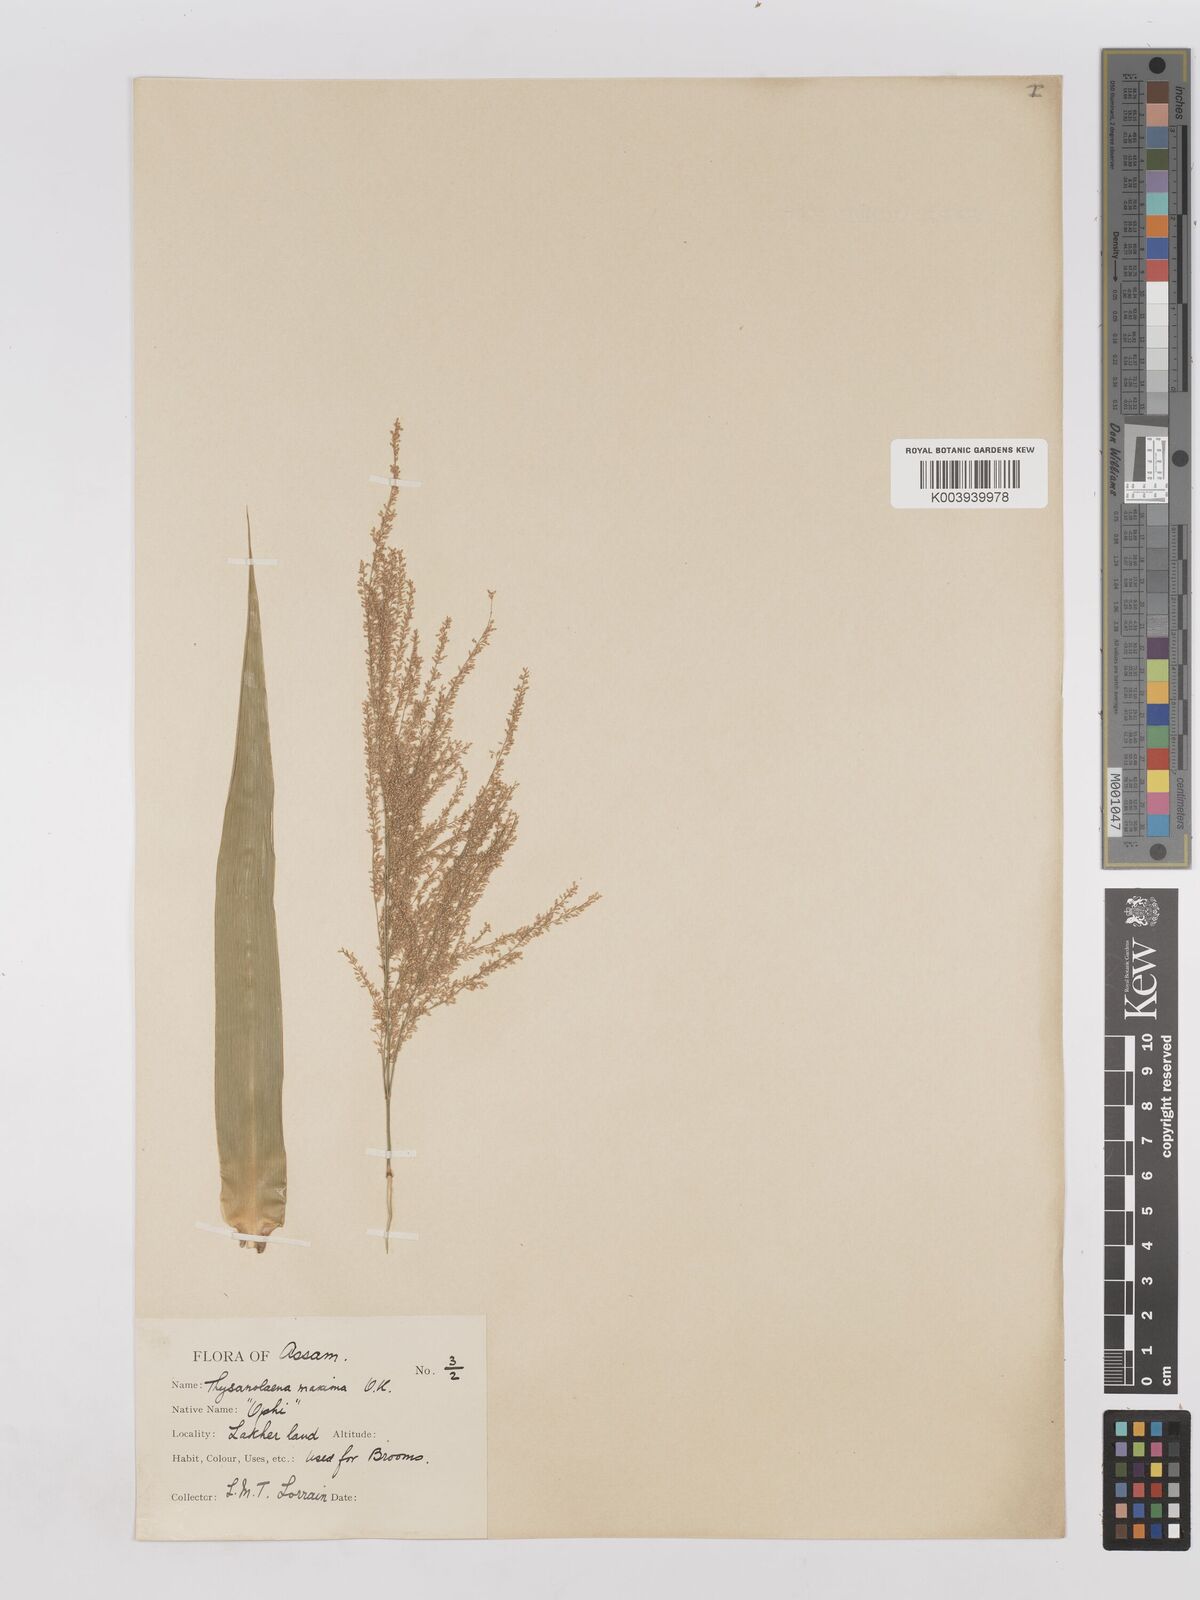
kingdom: Plantae
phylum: Tracheophyta
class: Liliopsida
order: Poales
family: Poaceae
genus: Thysanolaena
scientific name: Thysanolaena latifolia
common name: Tiger grass
